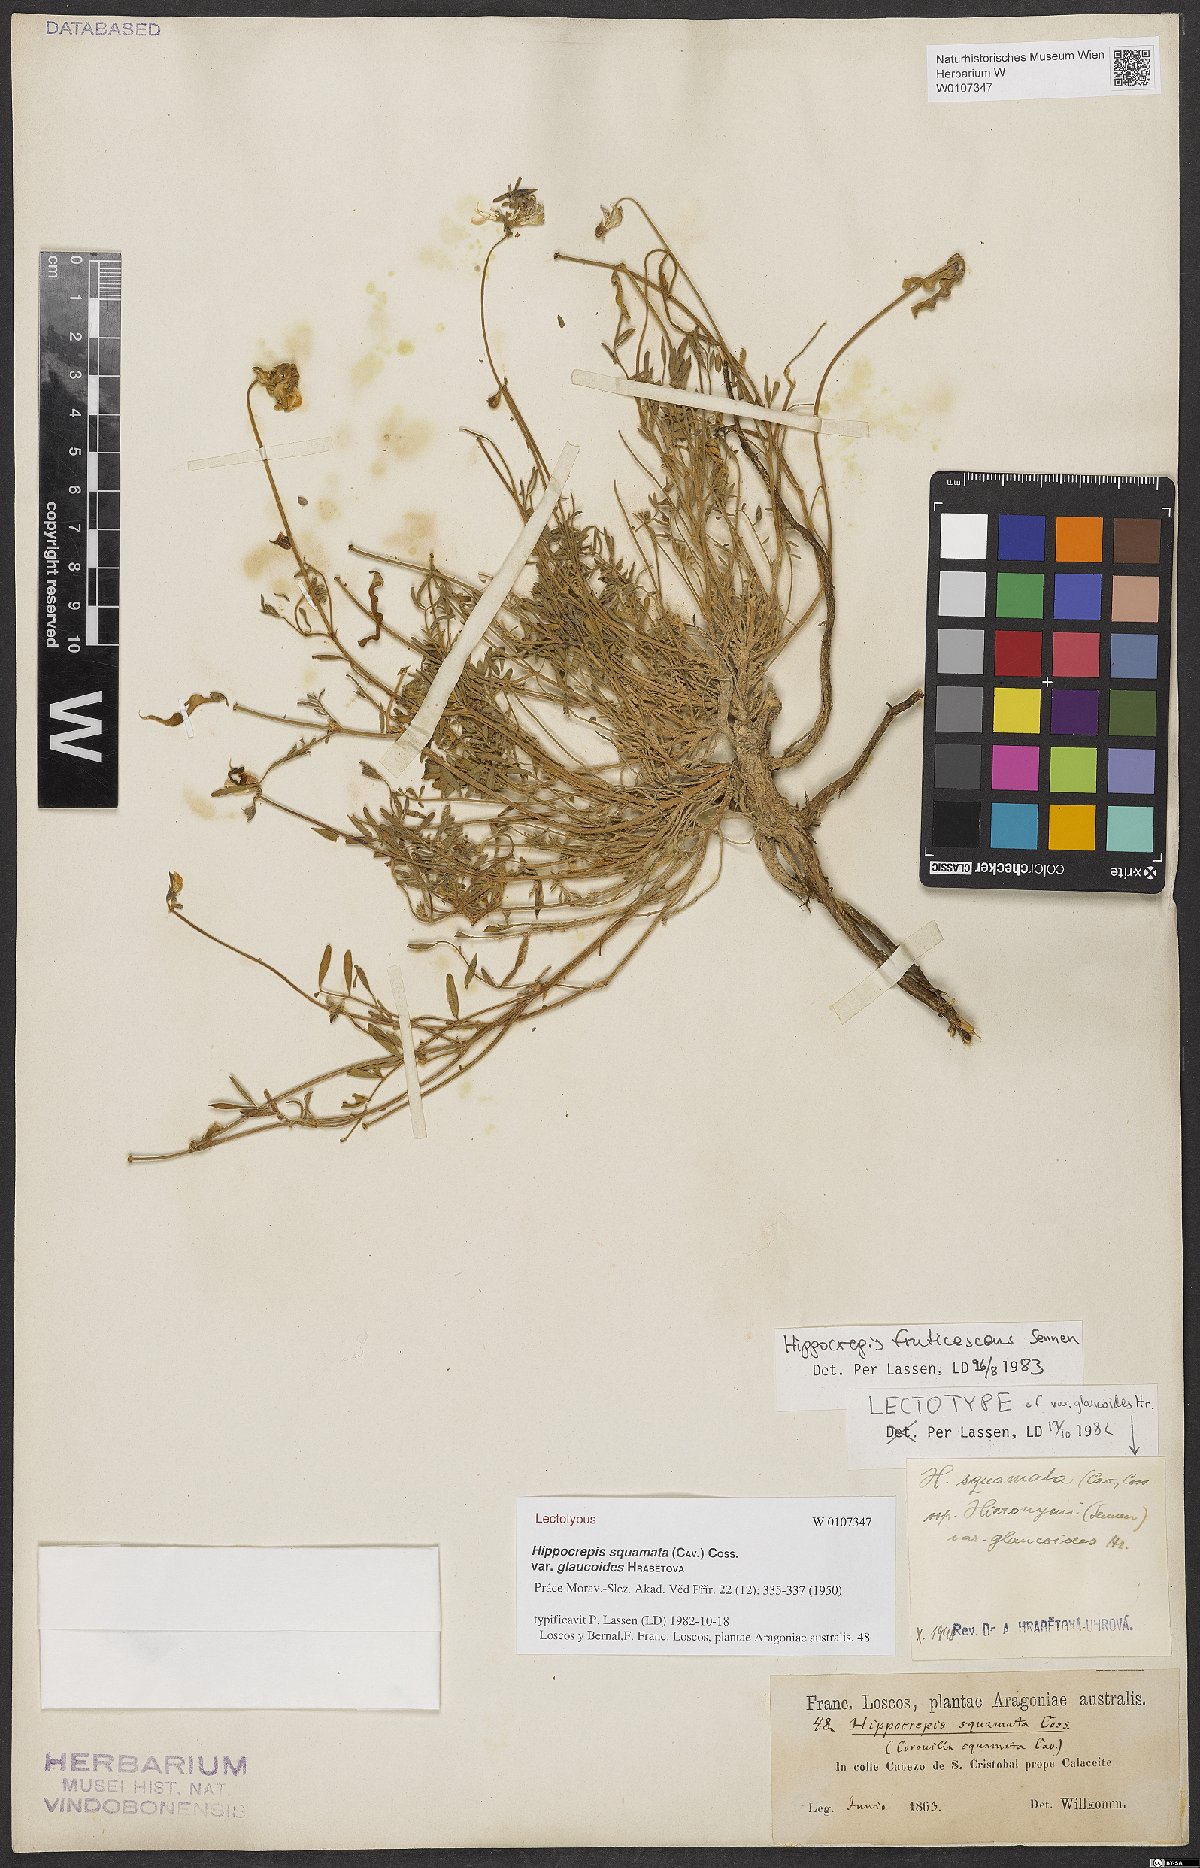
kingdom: Plantae
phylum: Tracheophyta
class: Magnoliopsida
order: Fabales
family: Fabaceae
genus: Hippocrepis
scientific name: Hippocrepis squamata
